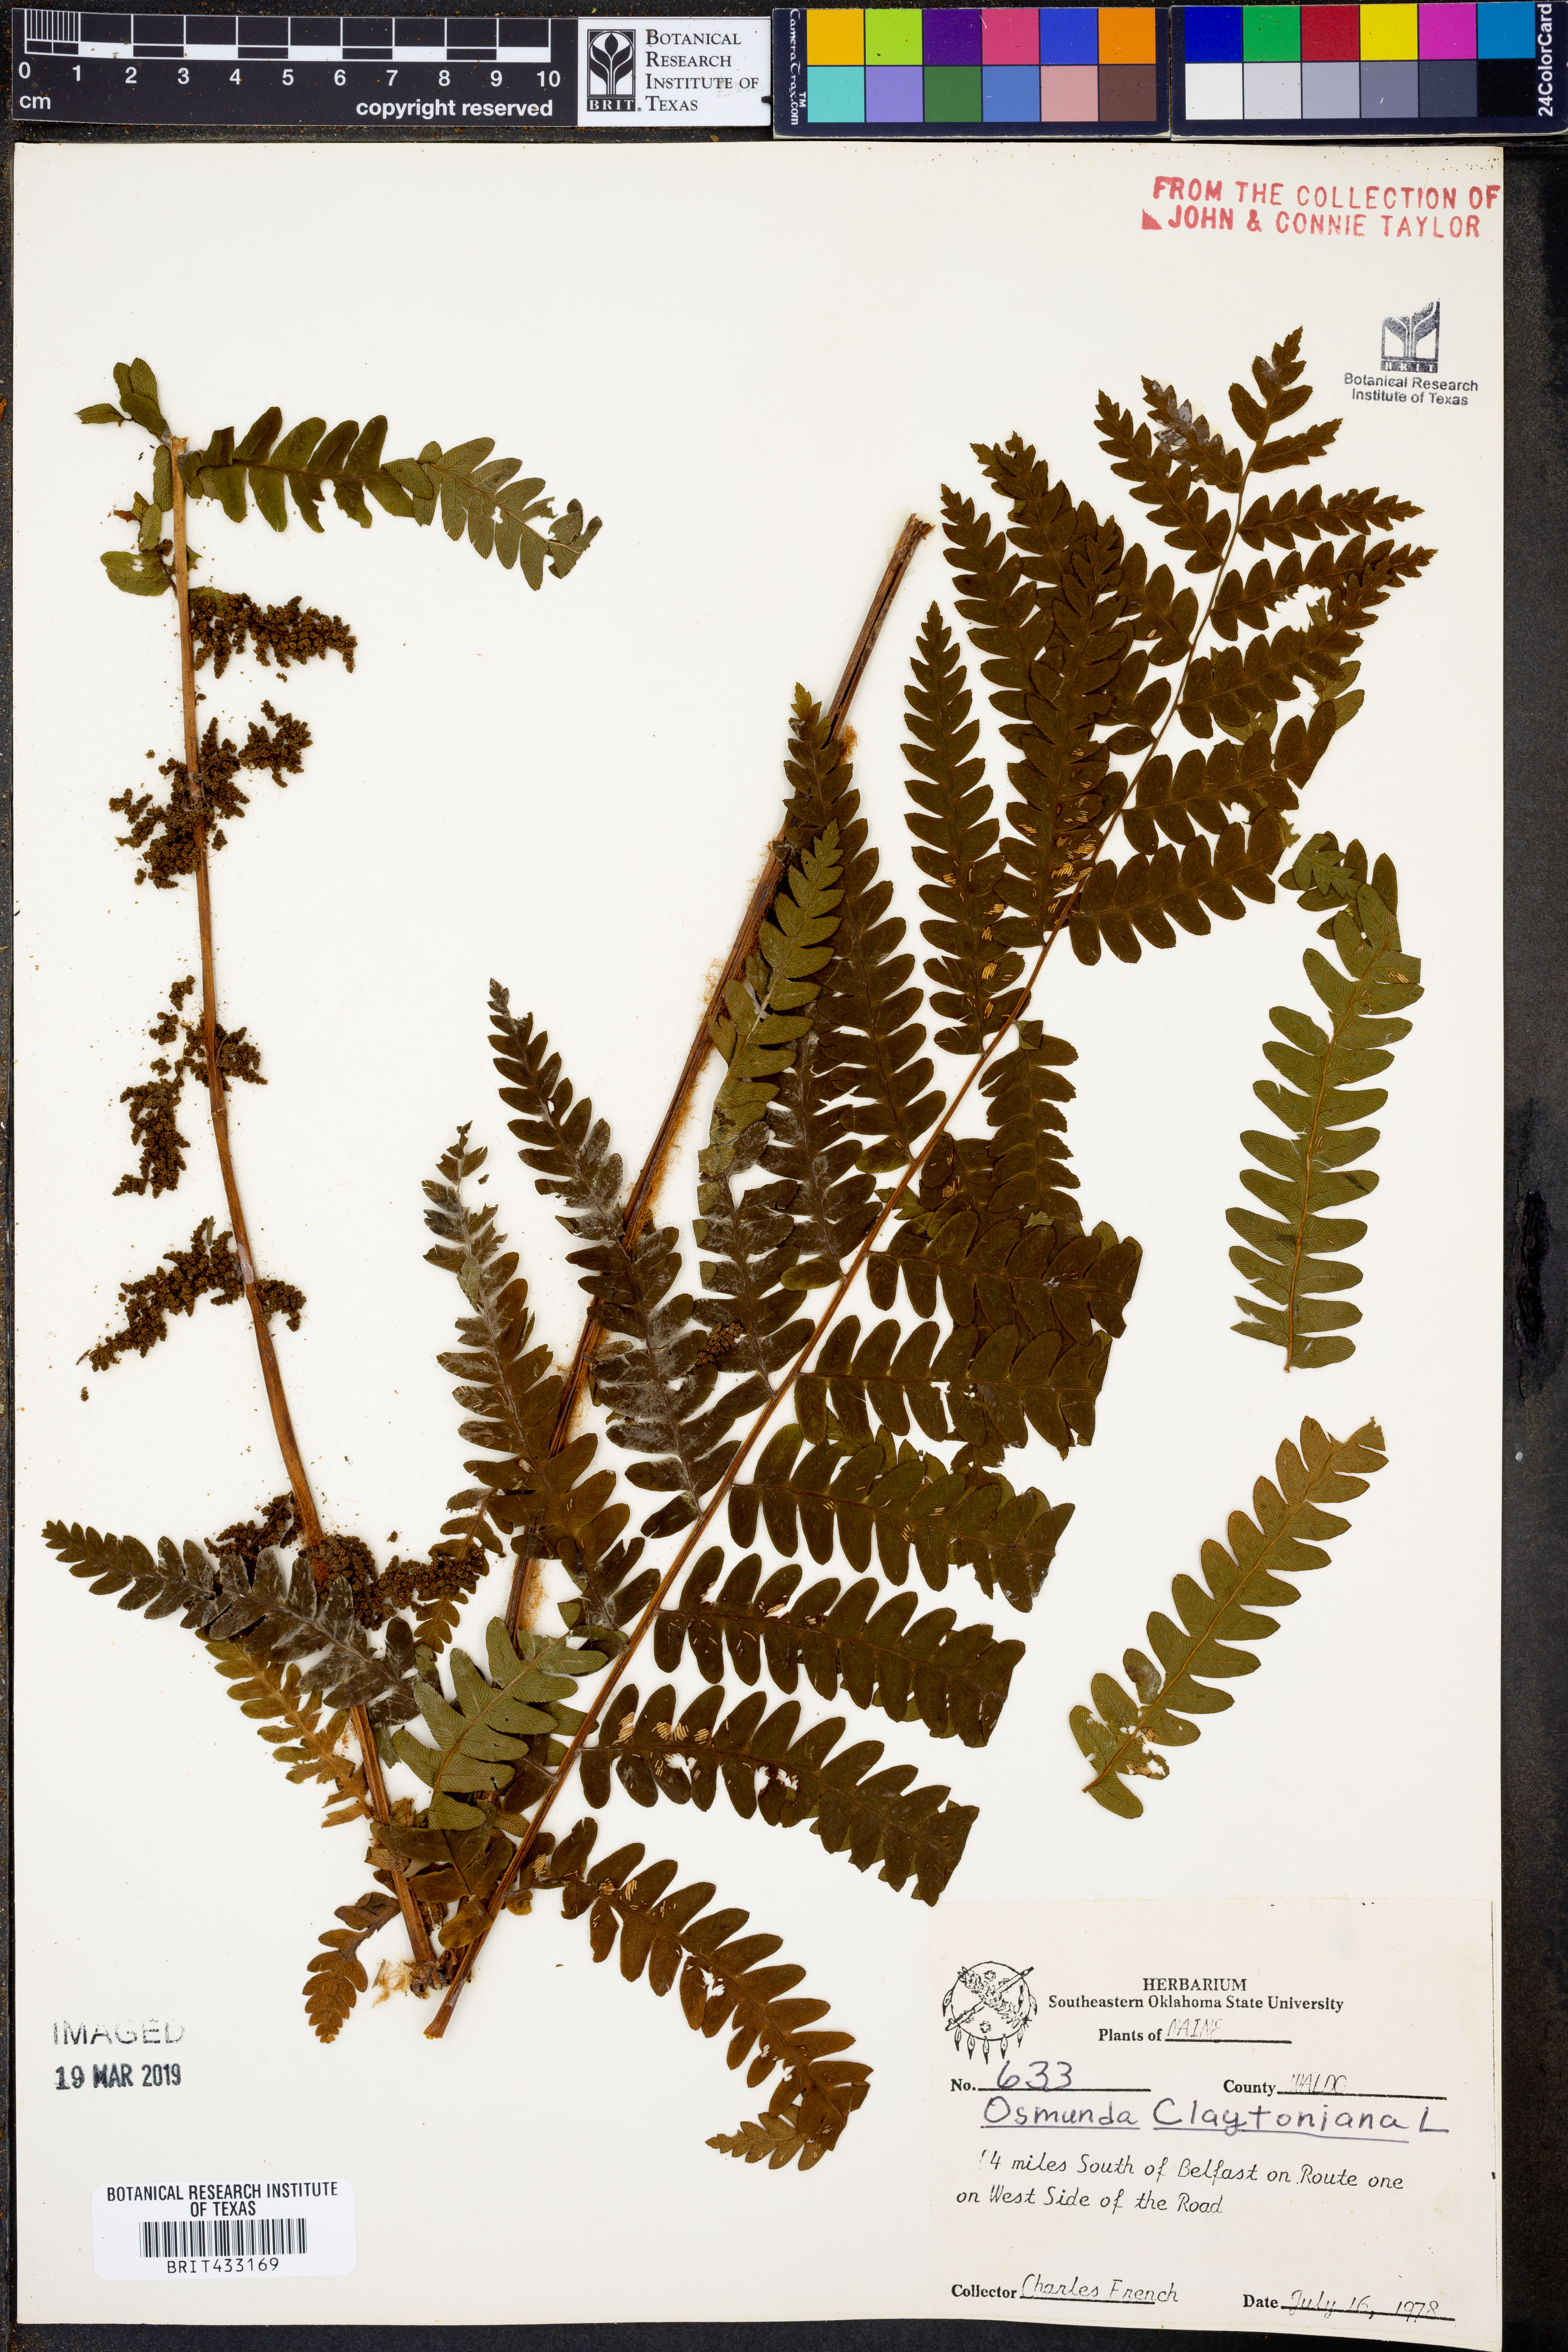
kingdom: Plantae
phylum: Tracheophyta
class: Polypodiopsida
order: Osmundales
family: Osmundaceae
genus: Claytosmunda
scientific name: Claytosmunda claytoniana
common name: Clayton's fern
